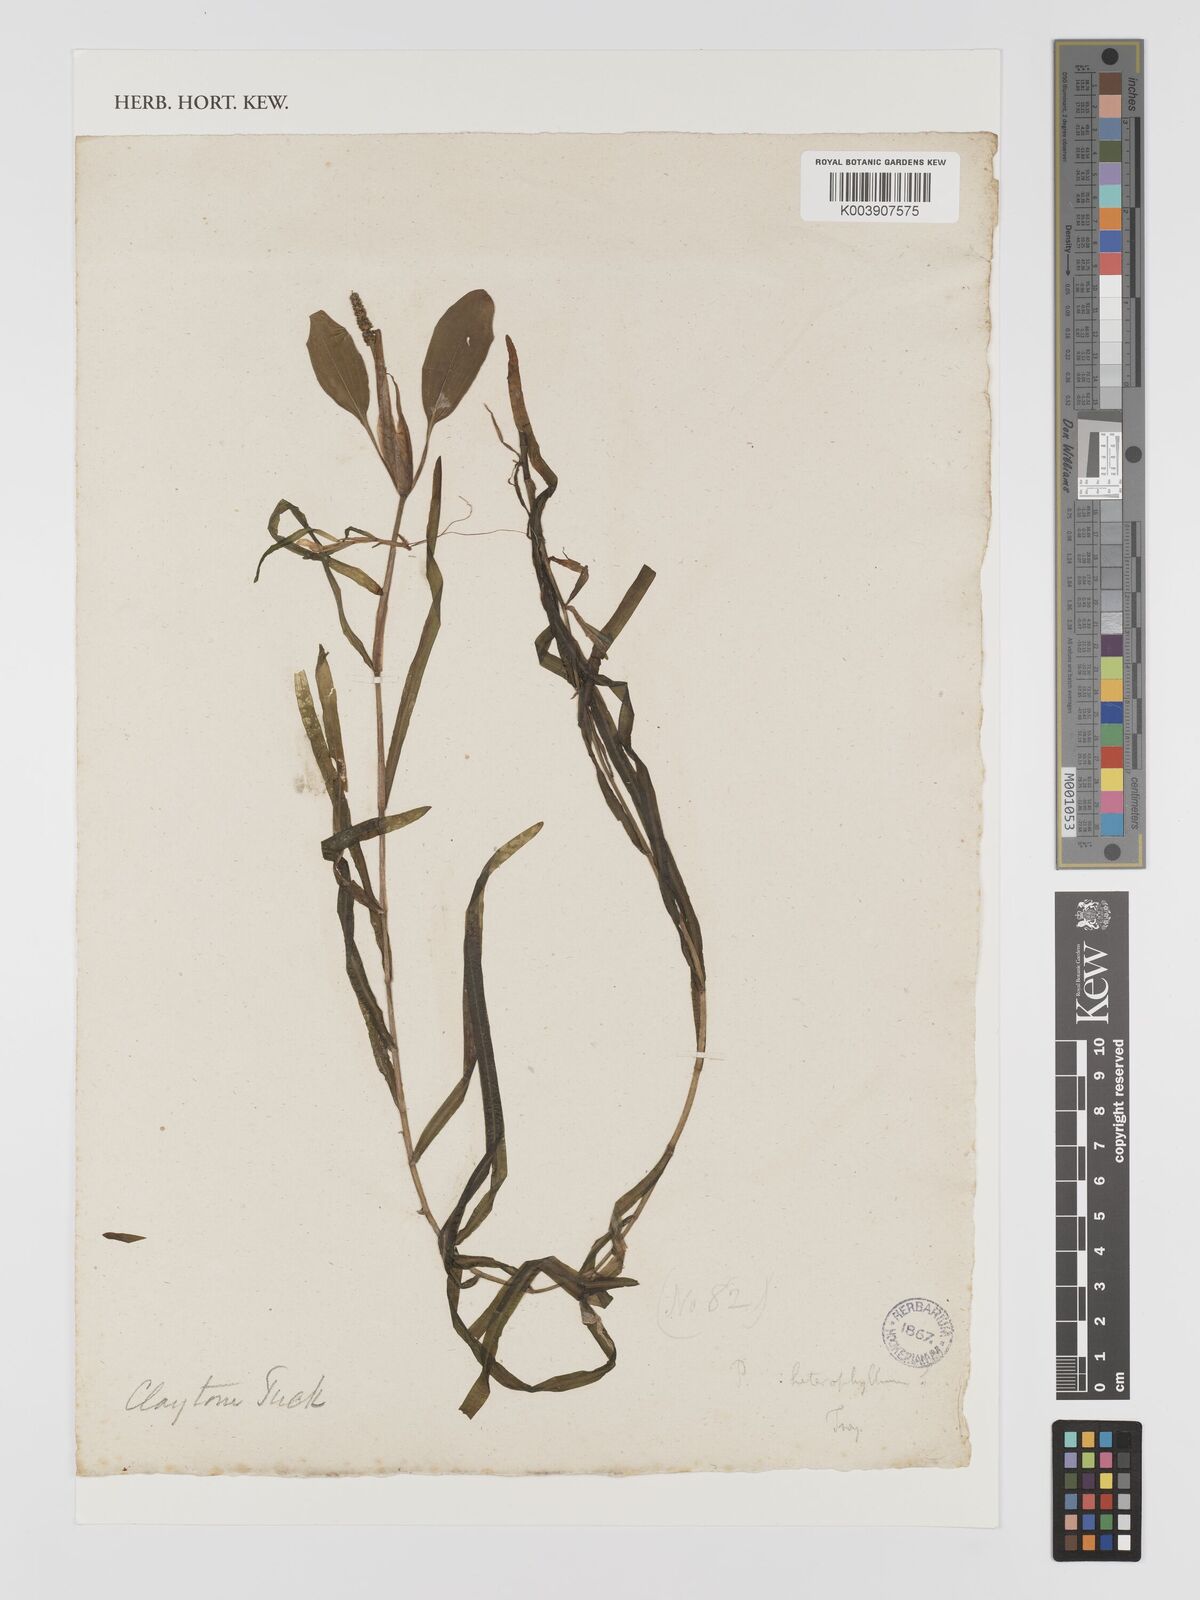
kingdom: Plantae
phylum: Tracheophyta
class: Liliopsida
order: Alismatales
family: Potamogetonaceae
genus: Potamogeton
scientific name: Potamogeton epihydrus
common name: American pondweed
